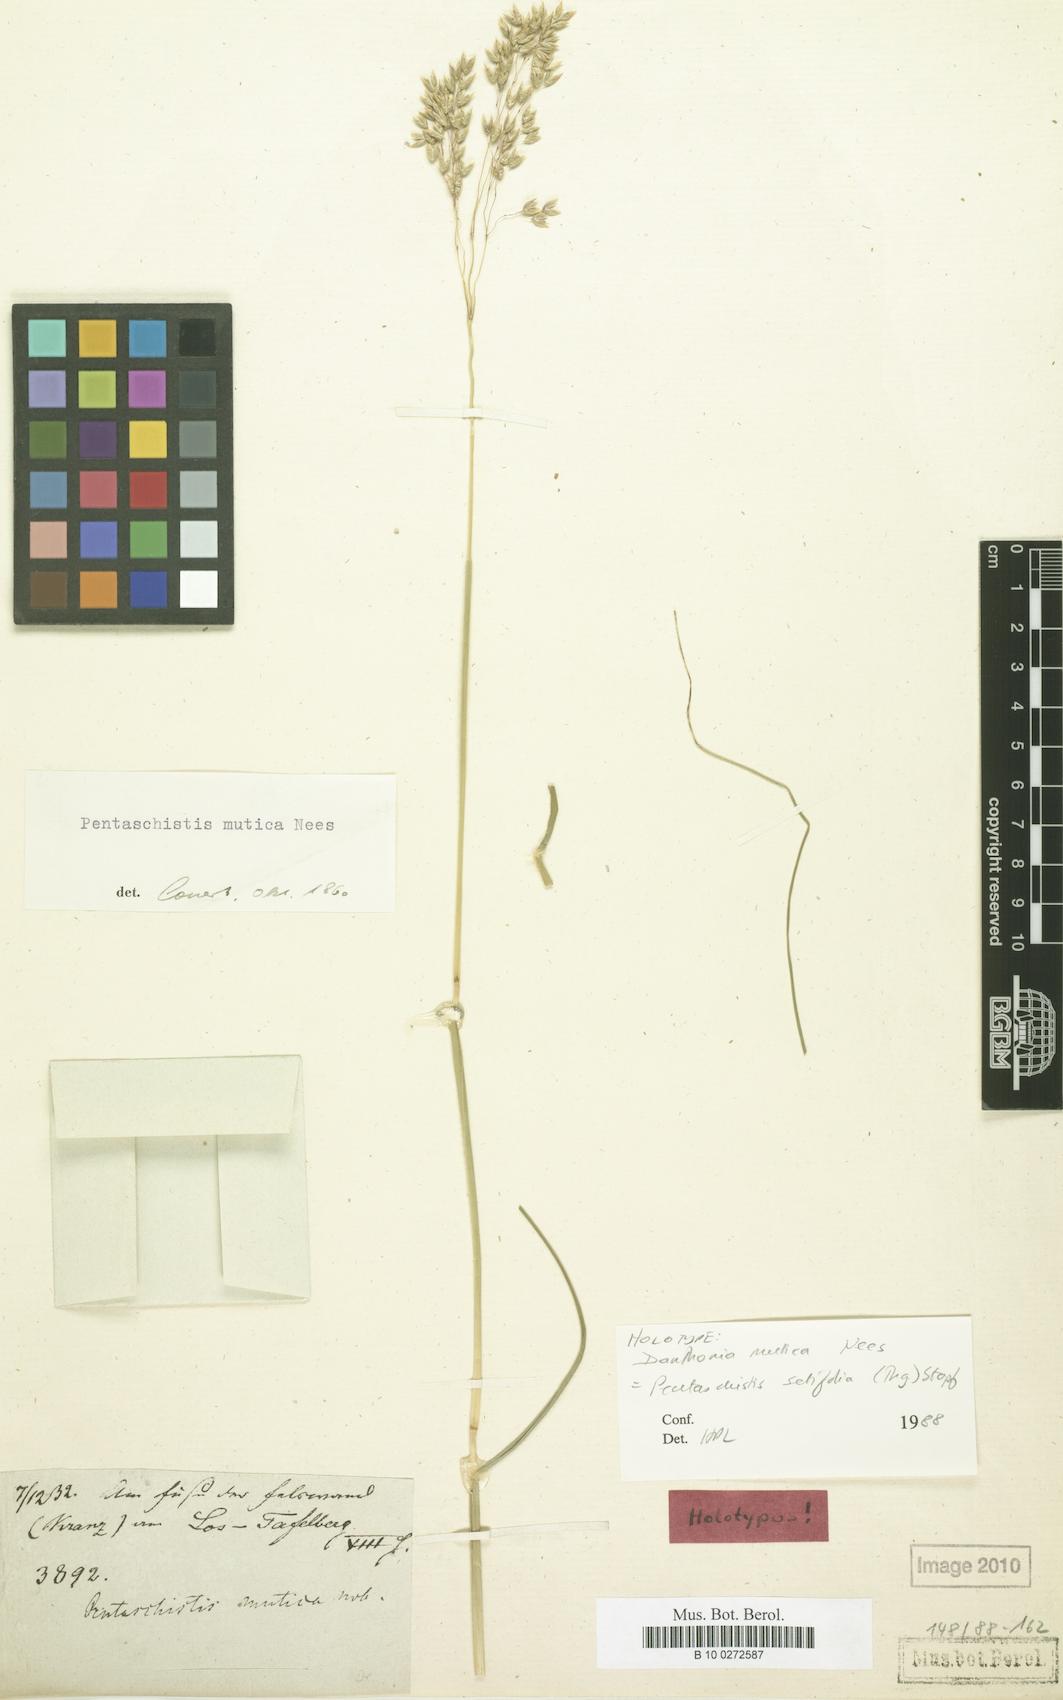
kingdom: Plantae
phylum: Tracheophyta
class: Liliopsida
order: Poales
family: Poaceae
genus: Pentameris
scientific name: Pentameris setifolia
